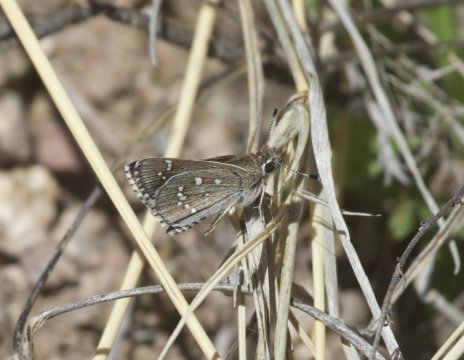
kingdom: Animalia
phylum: Arthropoda
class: Insecta
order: Lepidoptera
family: Hesperiidae
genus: Mastor
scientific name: Mastor eos
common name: Dotted Roadside-Skipper
